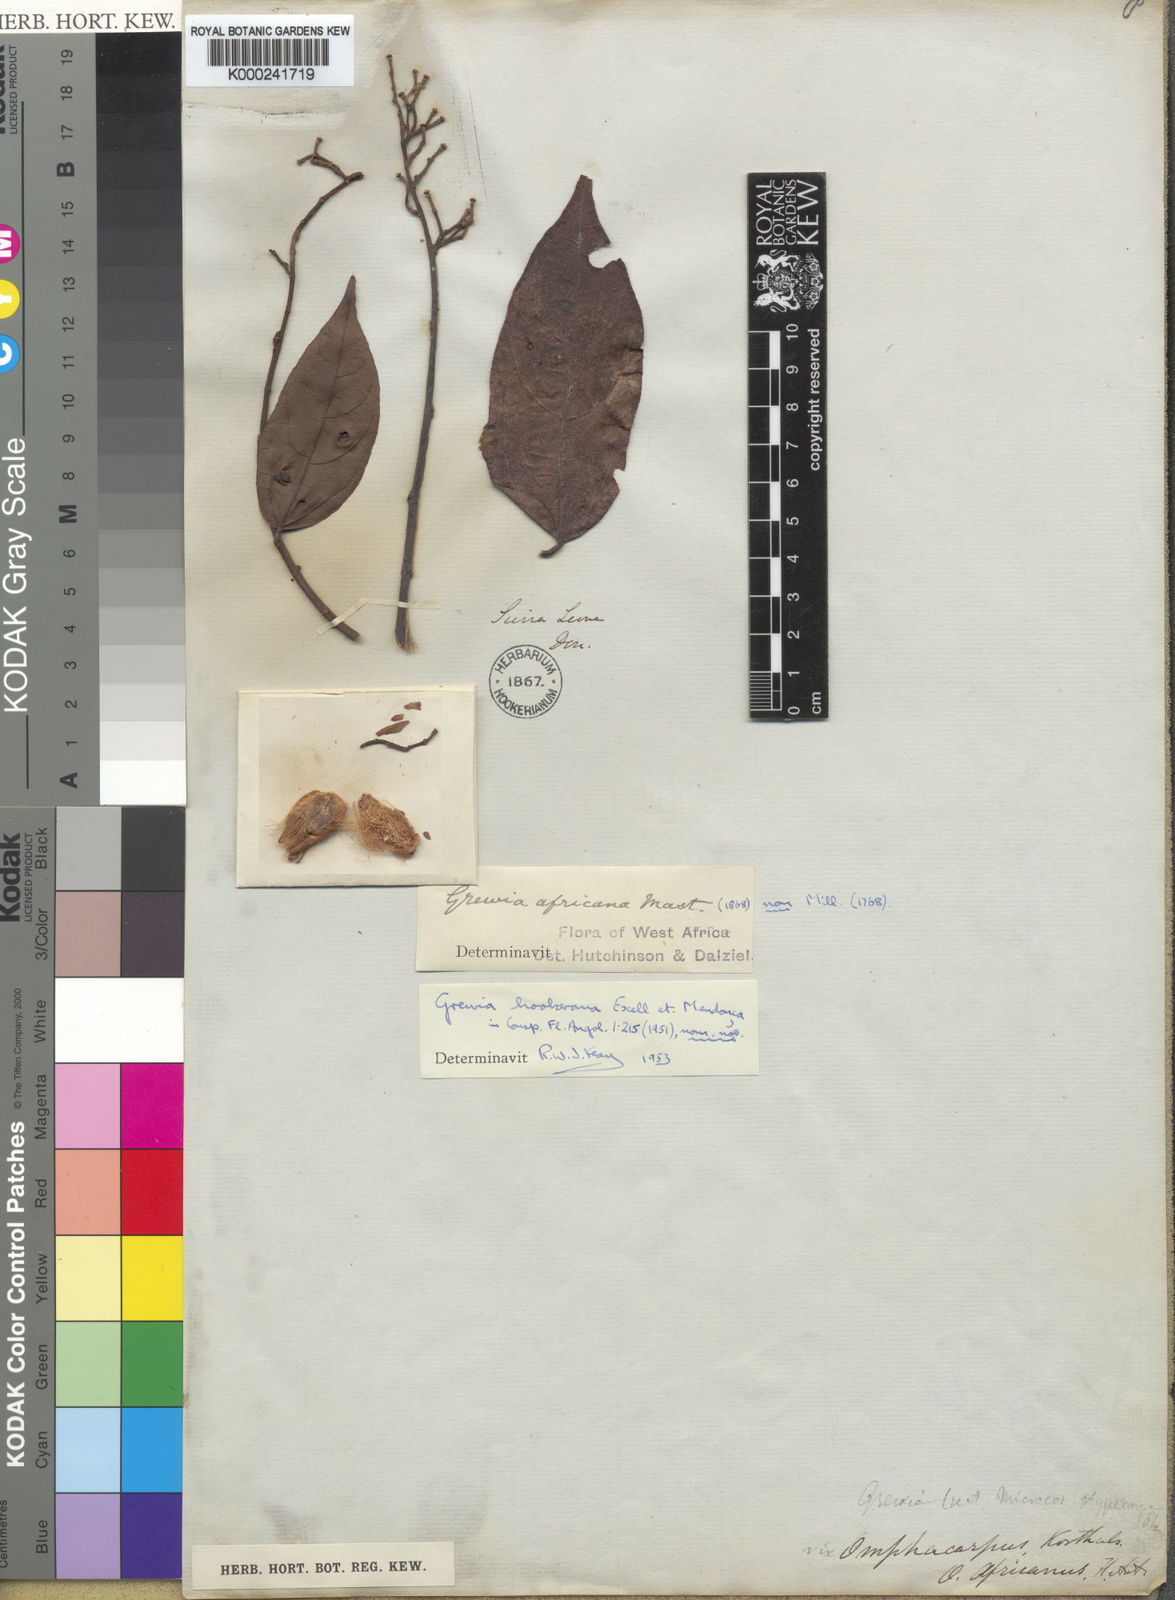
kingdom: Plantae
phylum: Tracheophyta
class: Magnoliopsida
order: Malvales
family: Malvaceae
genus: Grewia
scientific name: Grewia
